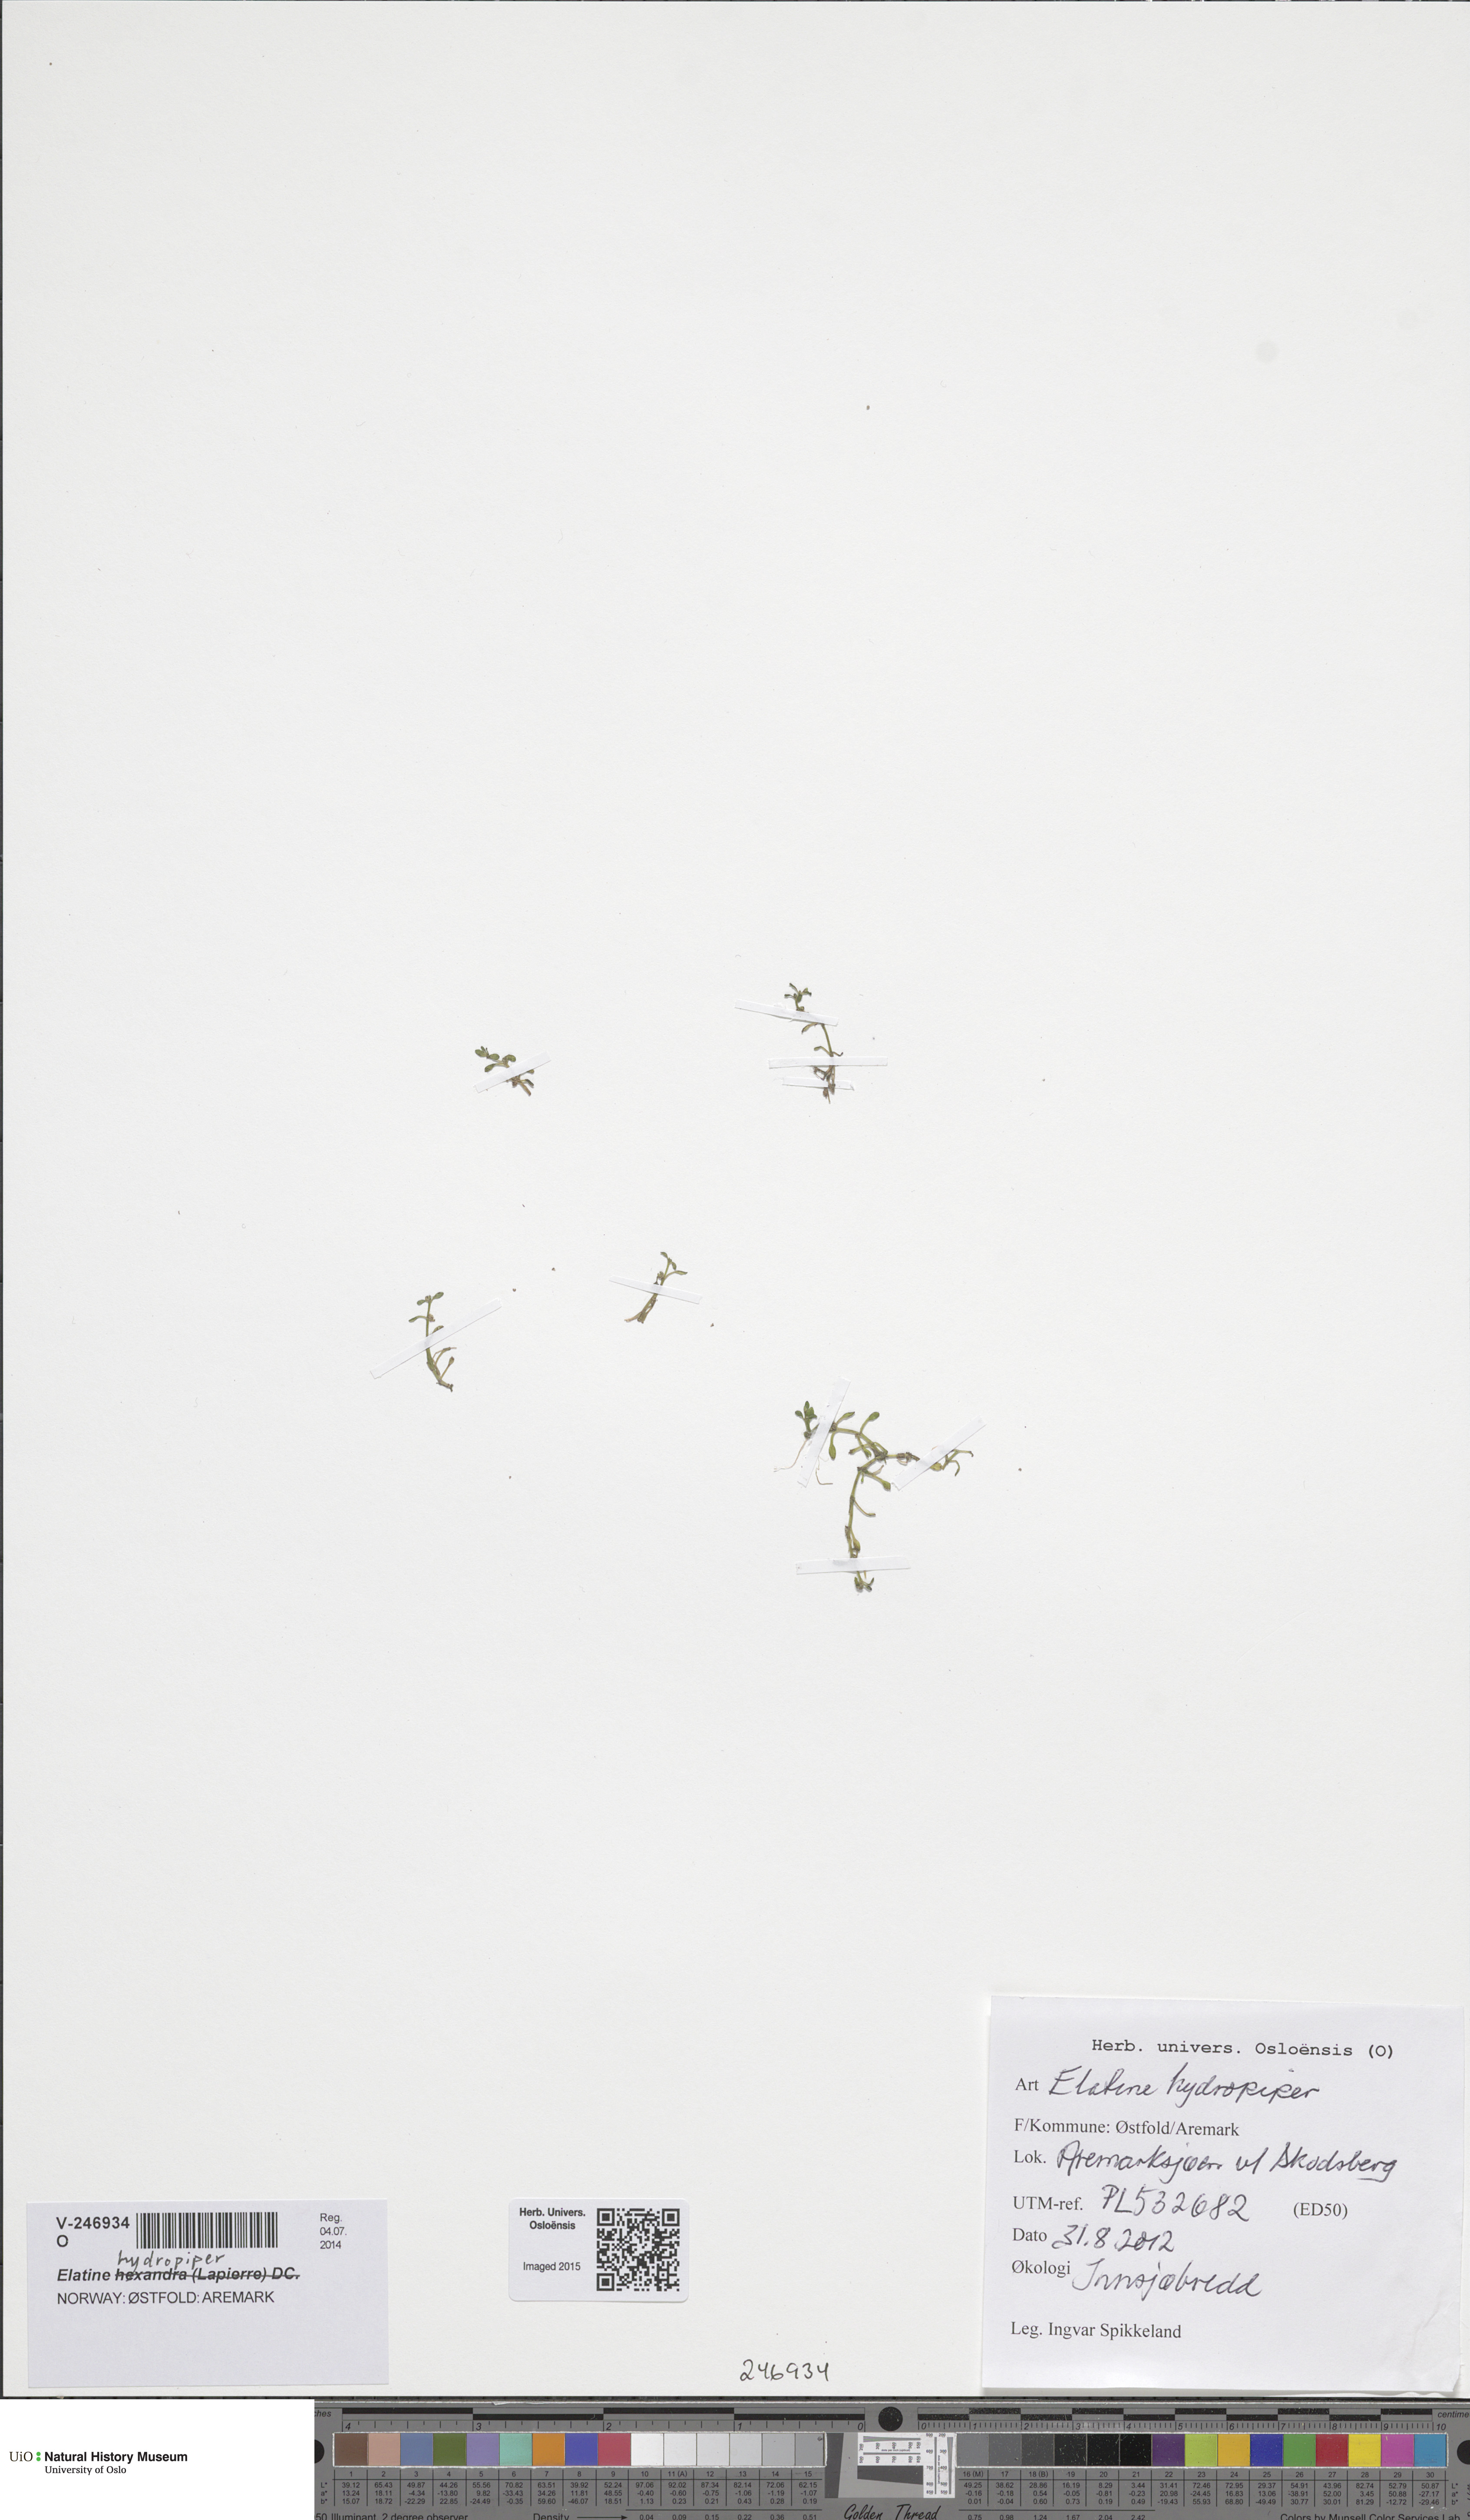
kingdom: Plantae
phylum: Tracheophyta
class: Magnoliopsida
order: Malpighiales
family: Elatinaceae
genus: Elatine
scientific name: Elatine hydropiper
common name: Eight-stamened waterwort
